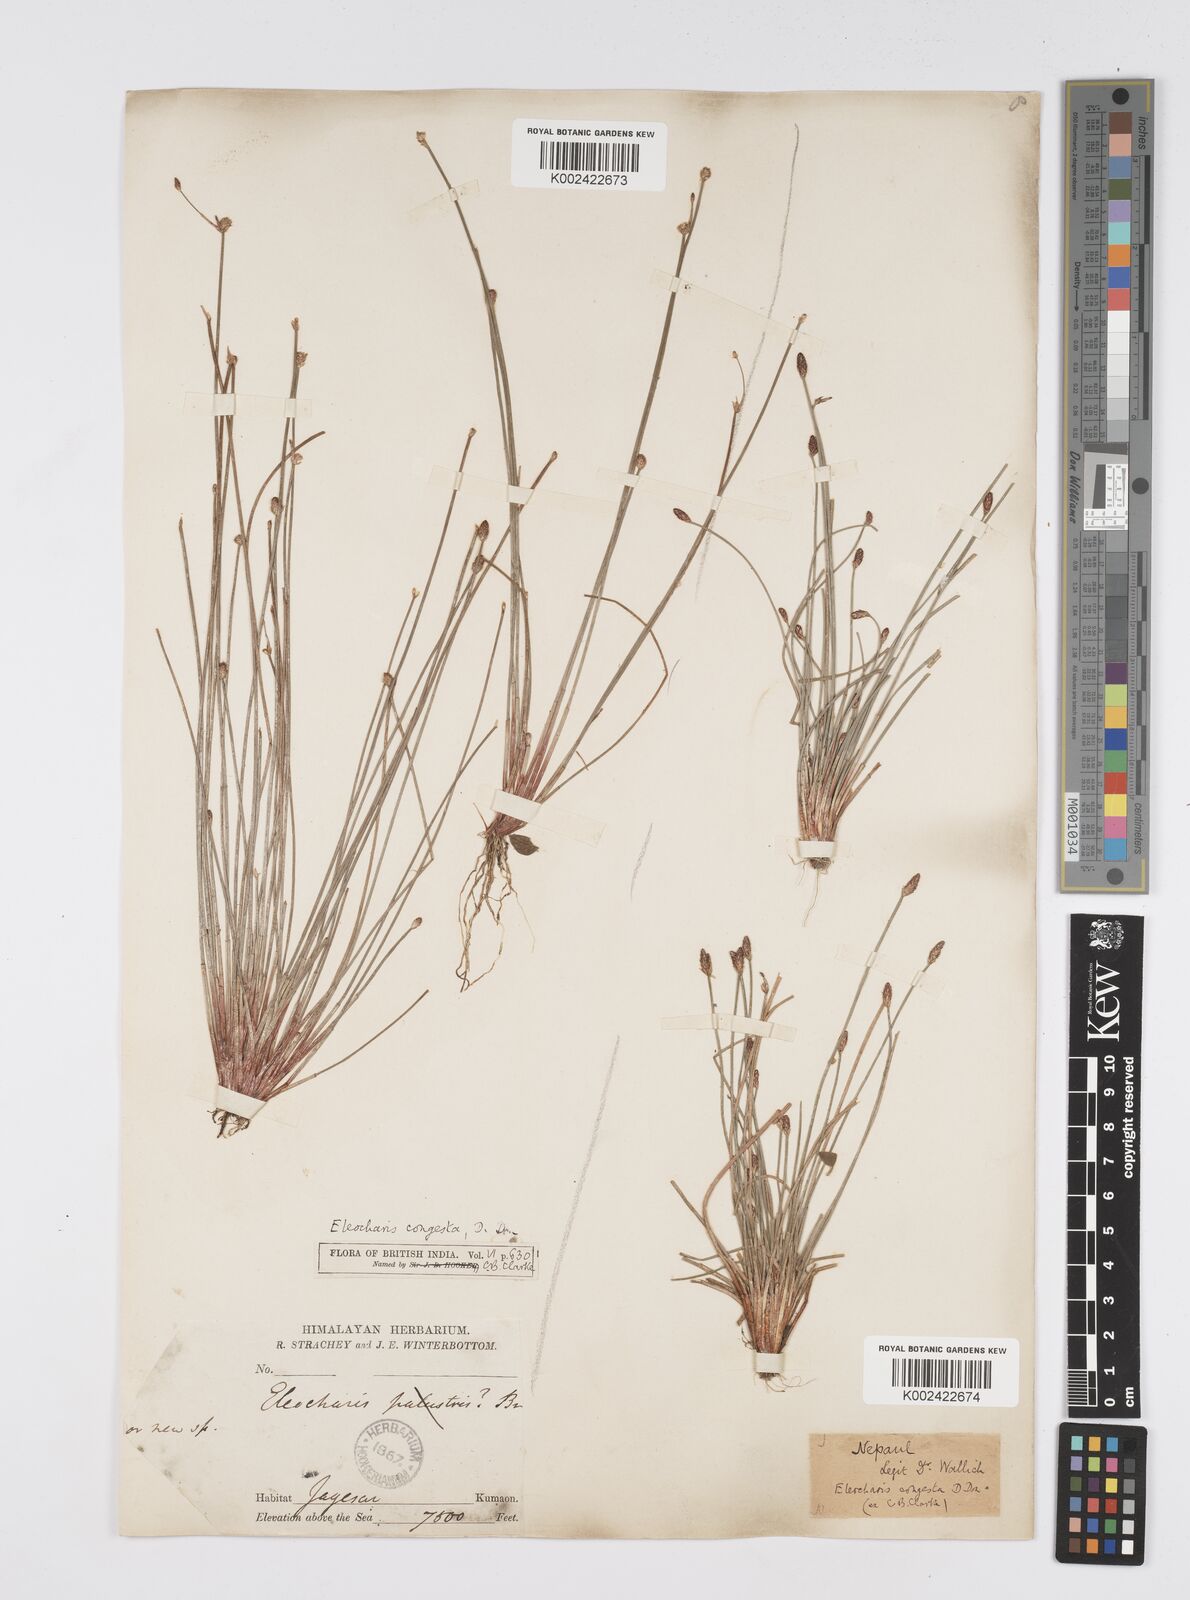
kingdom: Plantae
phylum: Tracheophyta
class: Liliopsida
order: Poales
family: Cyperaceae
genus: Eleocharis
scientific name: Eleocharis congesta
